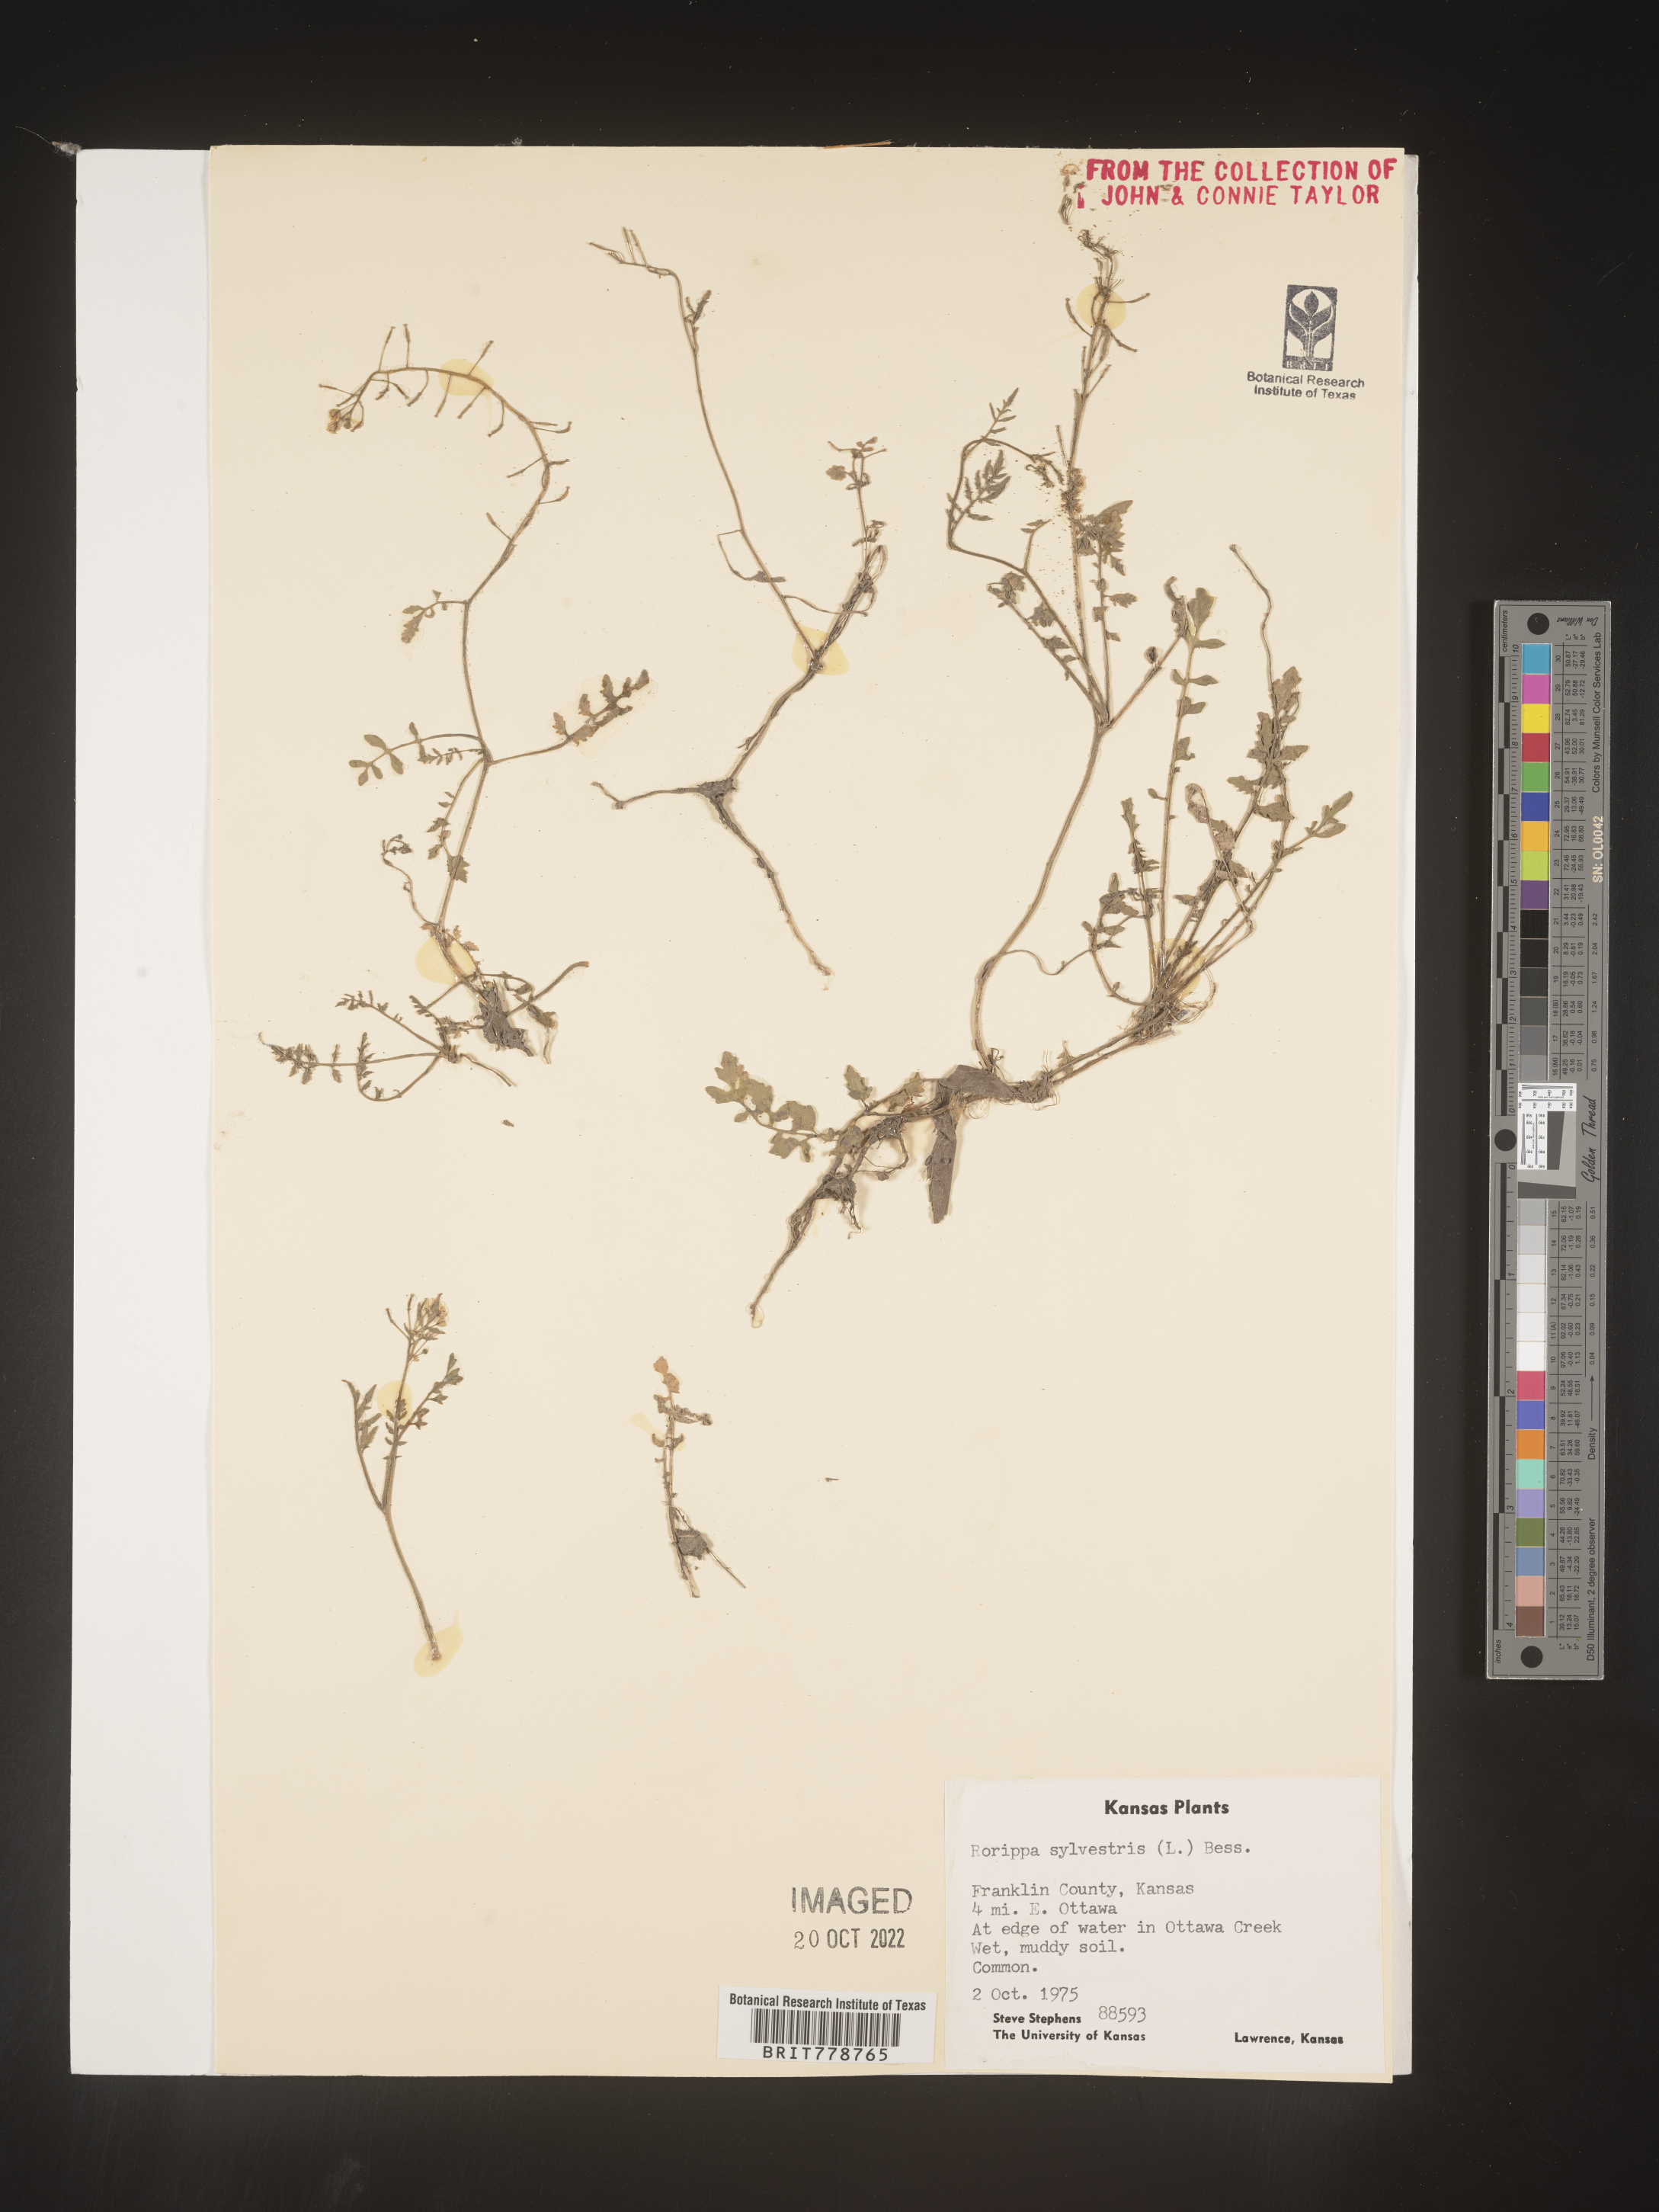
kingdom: Plantae
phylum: Tracheophyta
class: Magnoliopsida
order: Brassicales
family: Brassicaceae
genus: Rorippa
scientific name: Rorippa sylvestris
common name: Creeping yellowcress
